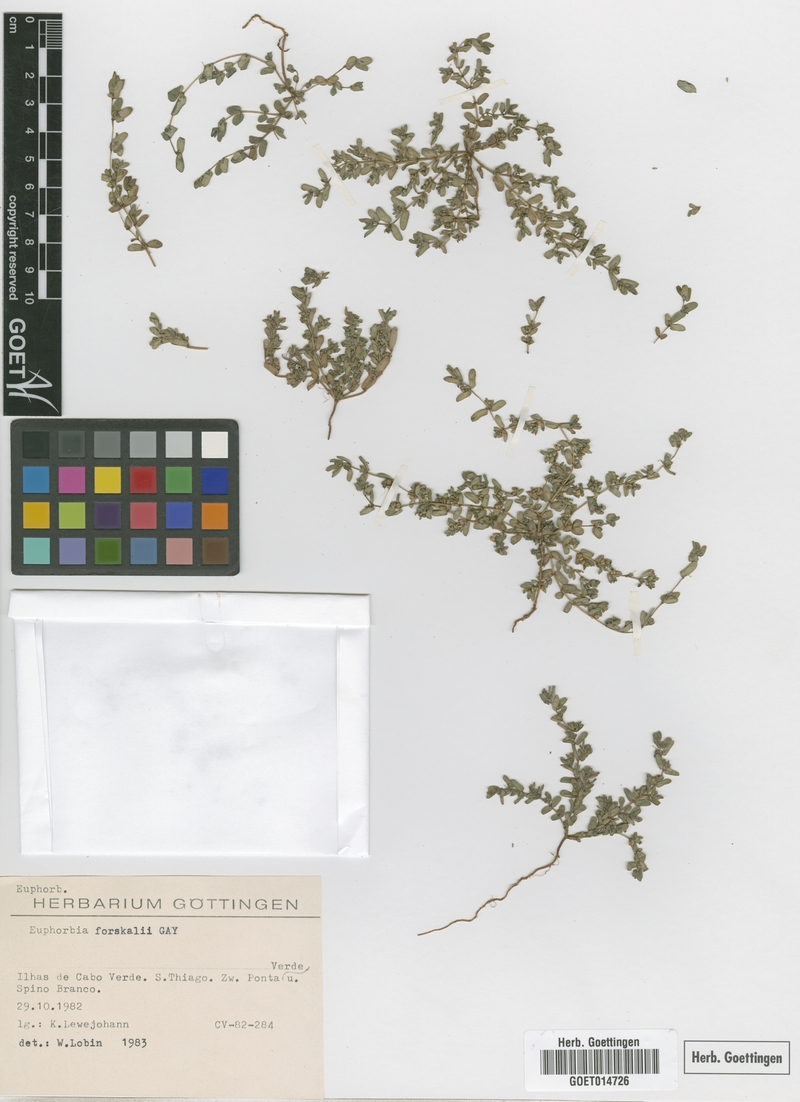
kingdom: Plantae
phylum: Tracheophyta
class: Magnoliopsida
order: Malpighiales
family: Euphorbiaceae
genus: Euphorbia
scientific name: Euphorbia forsskalii
